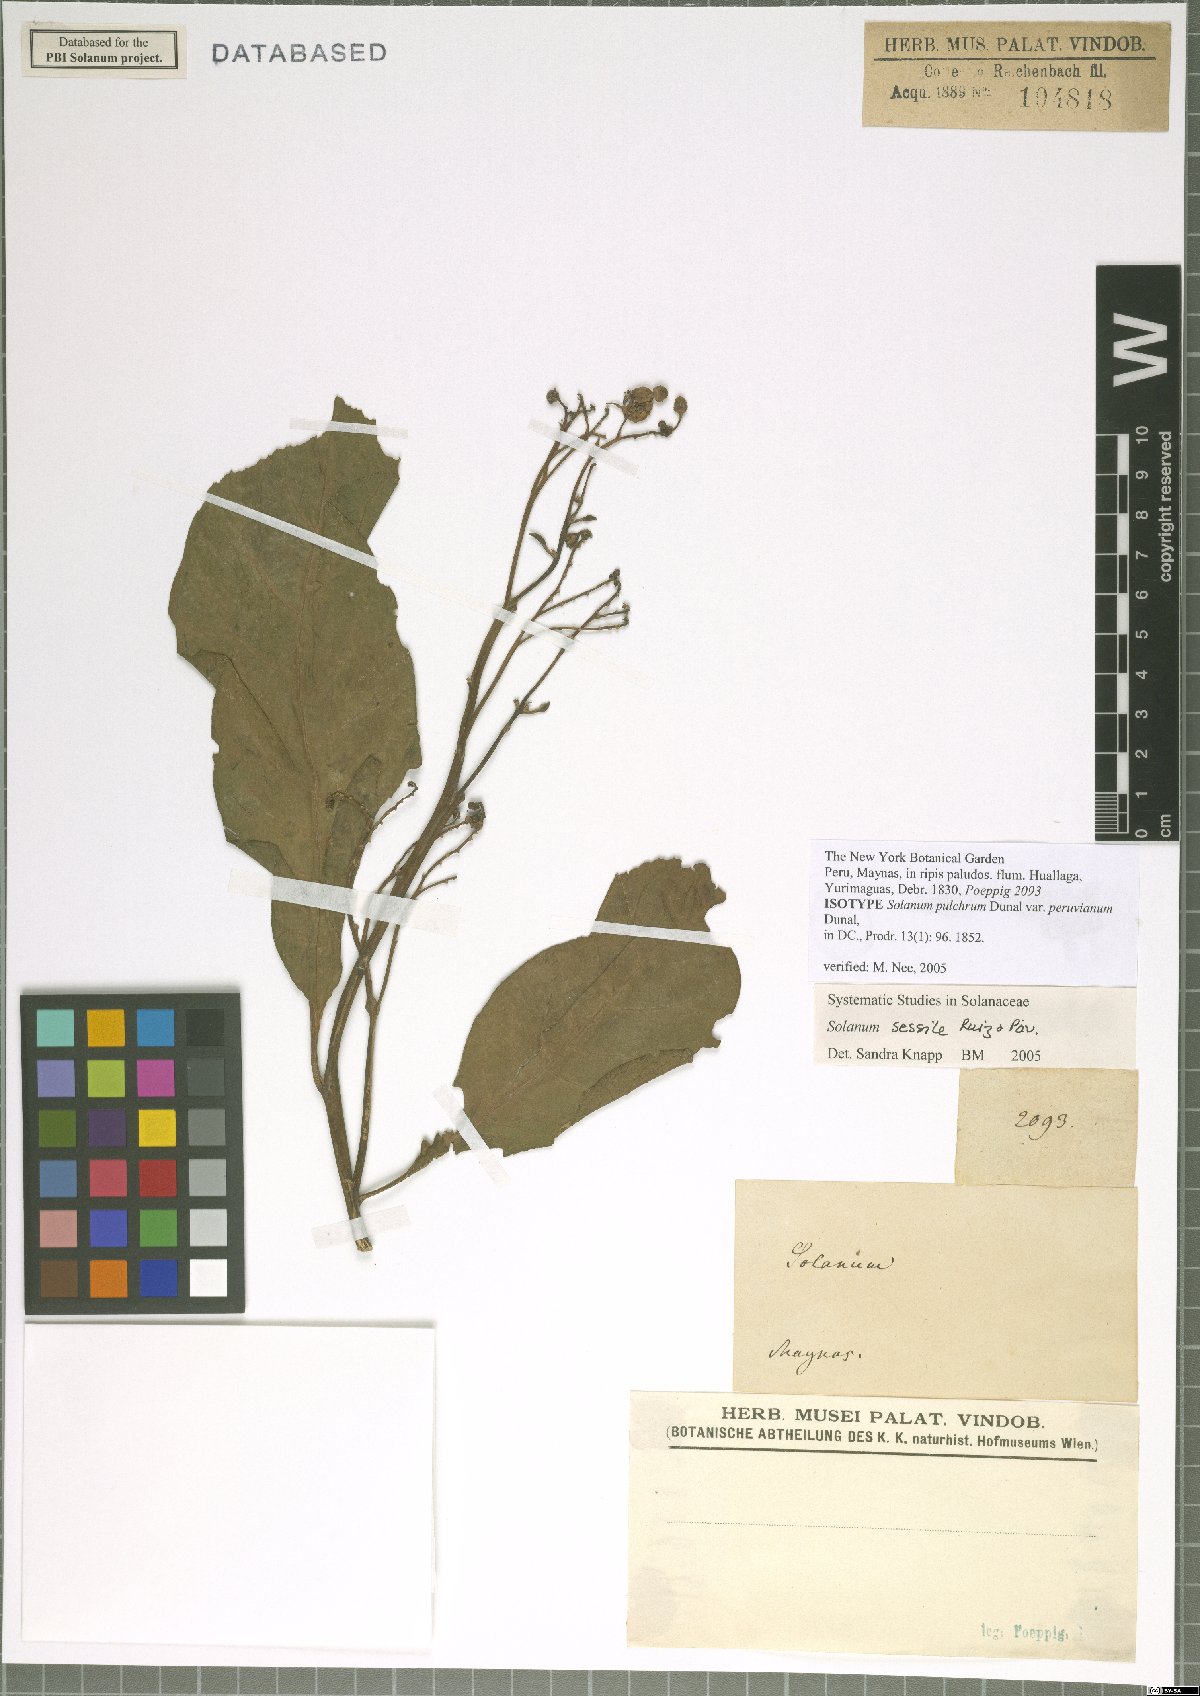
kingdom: Plantae
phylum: Tracheophyta
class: Magnoliopsida
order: Solanales
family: Solanaceae
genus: Solanum
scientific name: Solanum sessile
